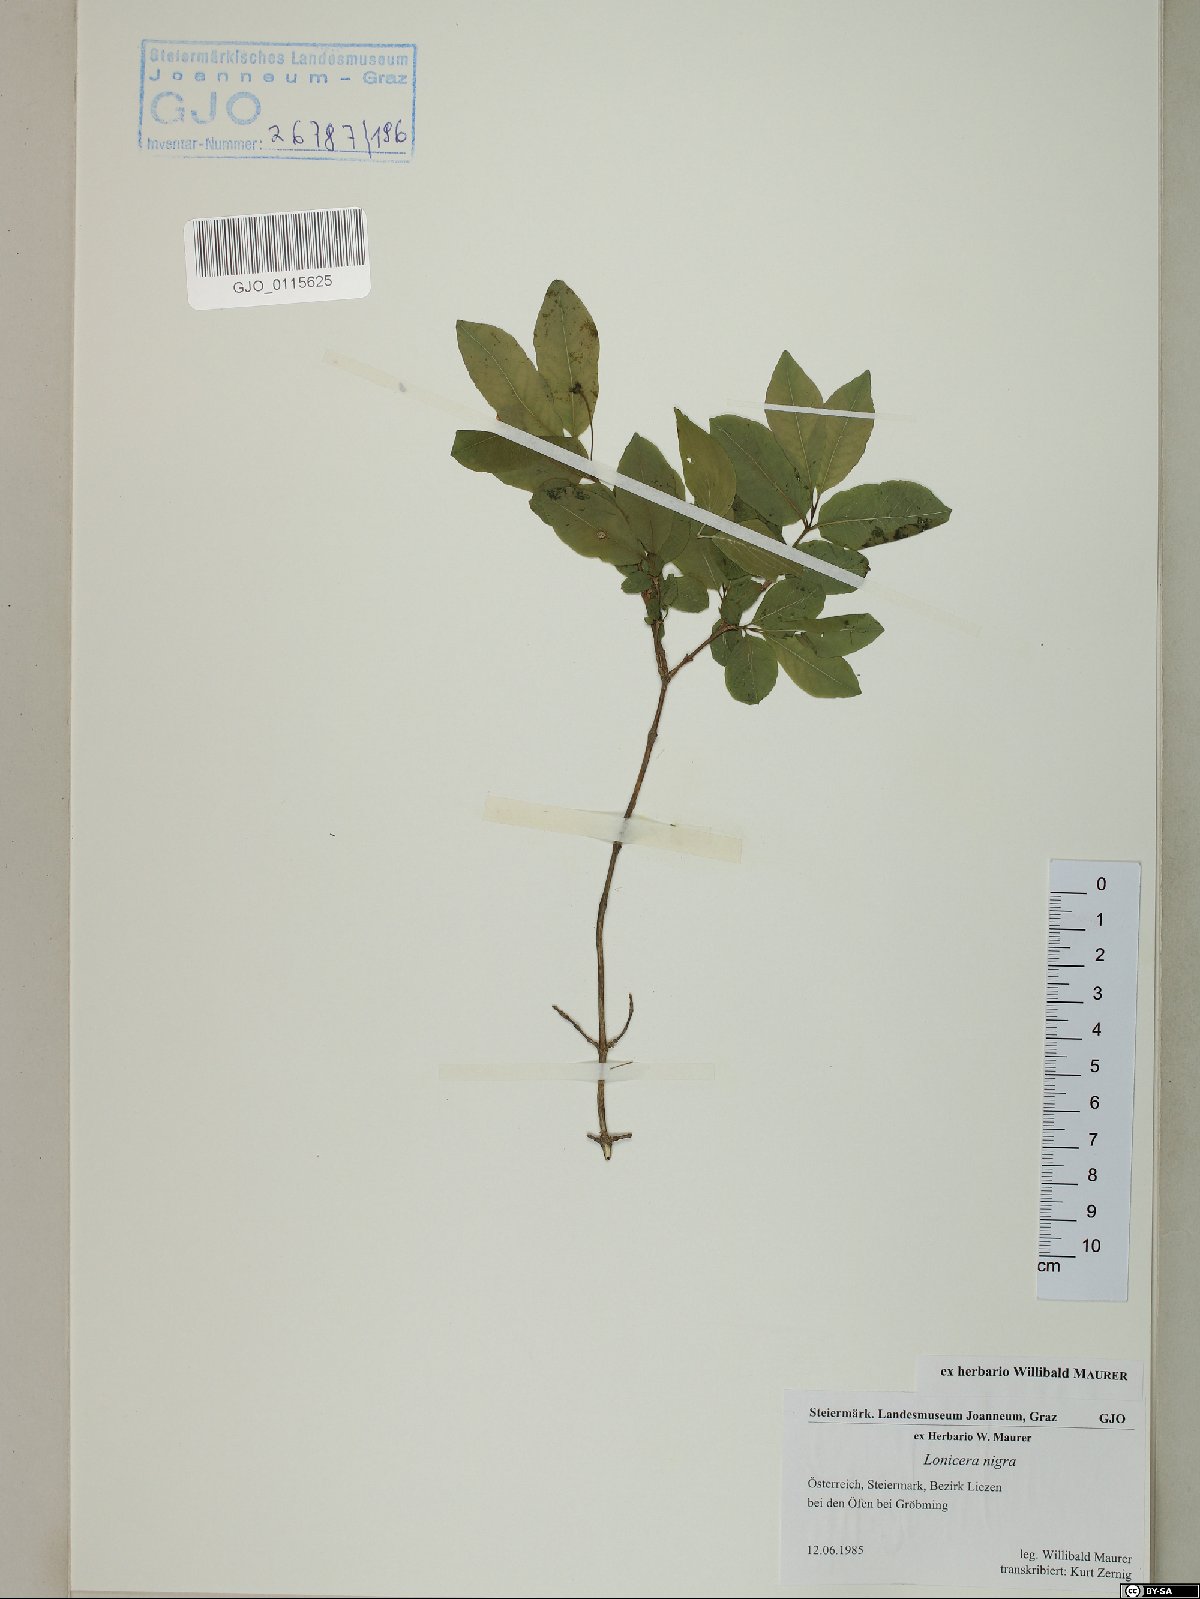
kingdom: Plantae
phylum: Tracheophyta
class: Magnoliopsida
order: Dipsacales
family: Caprifoliaceae
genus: Lonicera
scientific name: Lonicera nigra
